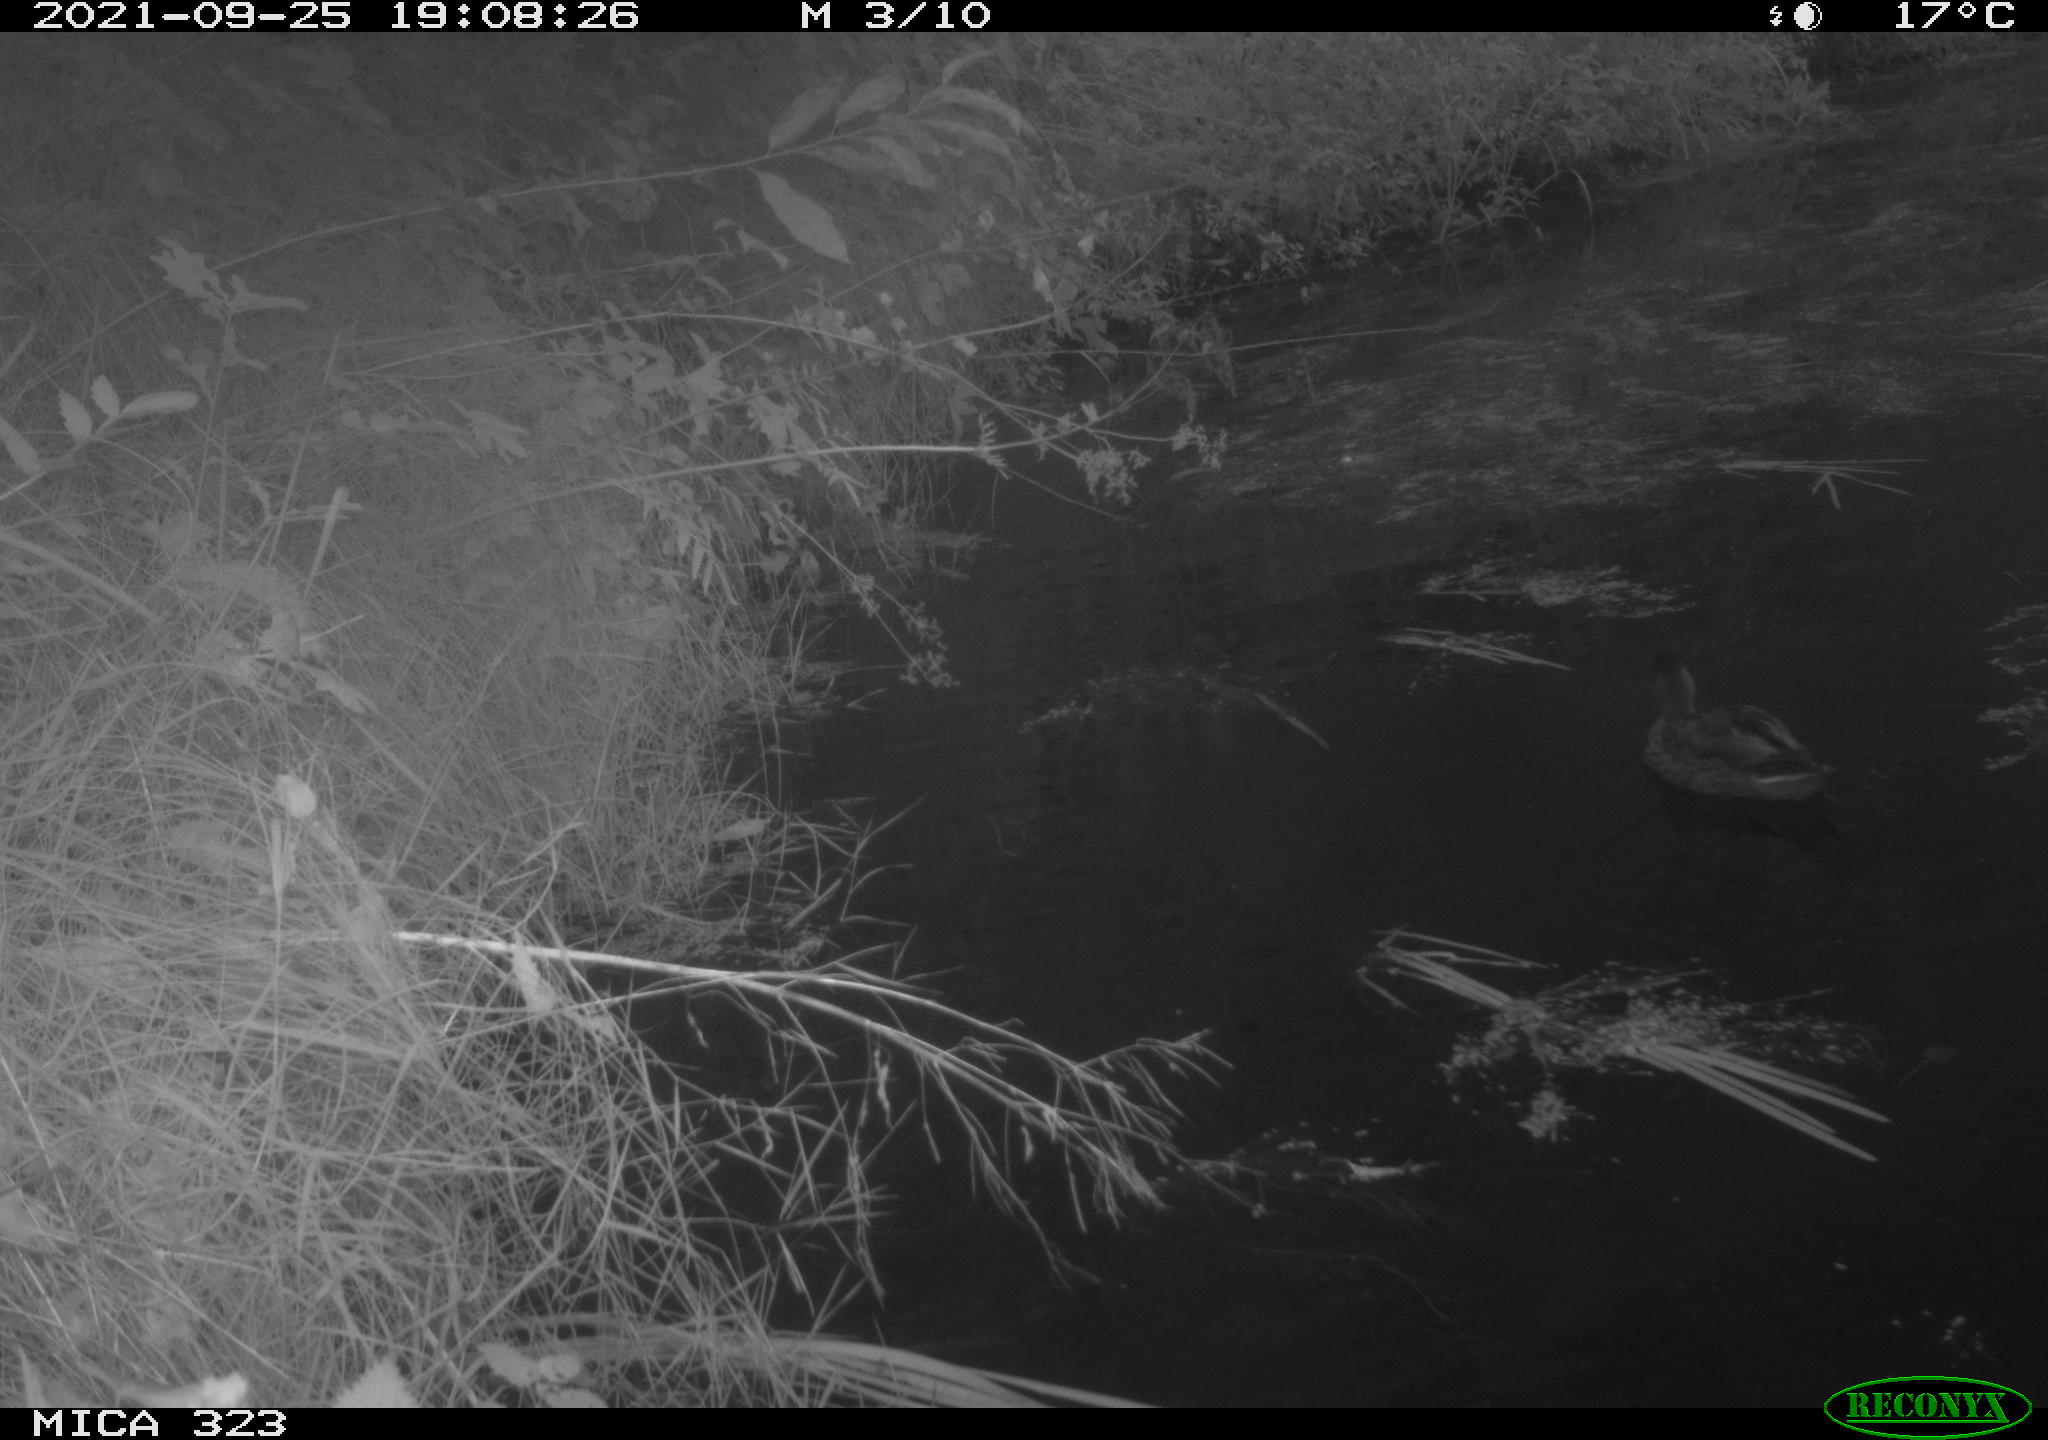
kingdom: Animalia
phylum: Chordata
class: Aves
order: Anseriformes
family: Anatidae
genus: Anas
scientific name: Anas platyrhynchos
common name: Mallard
